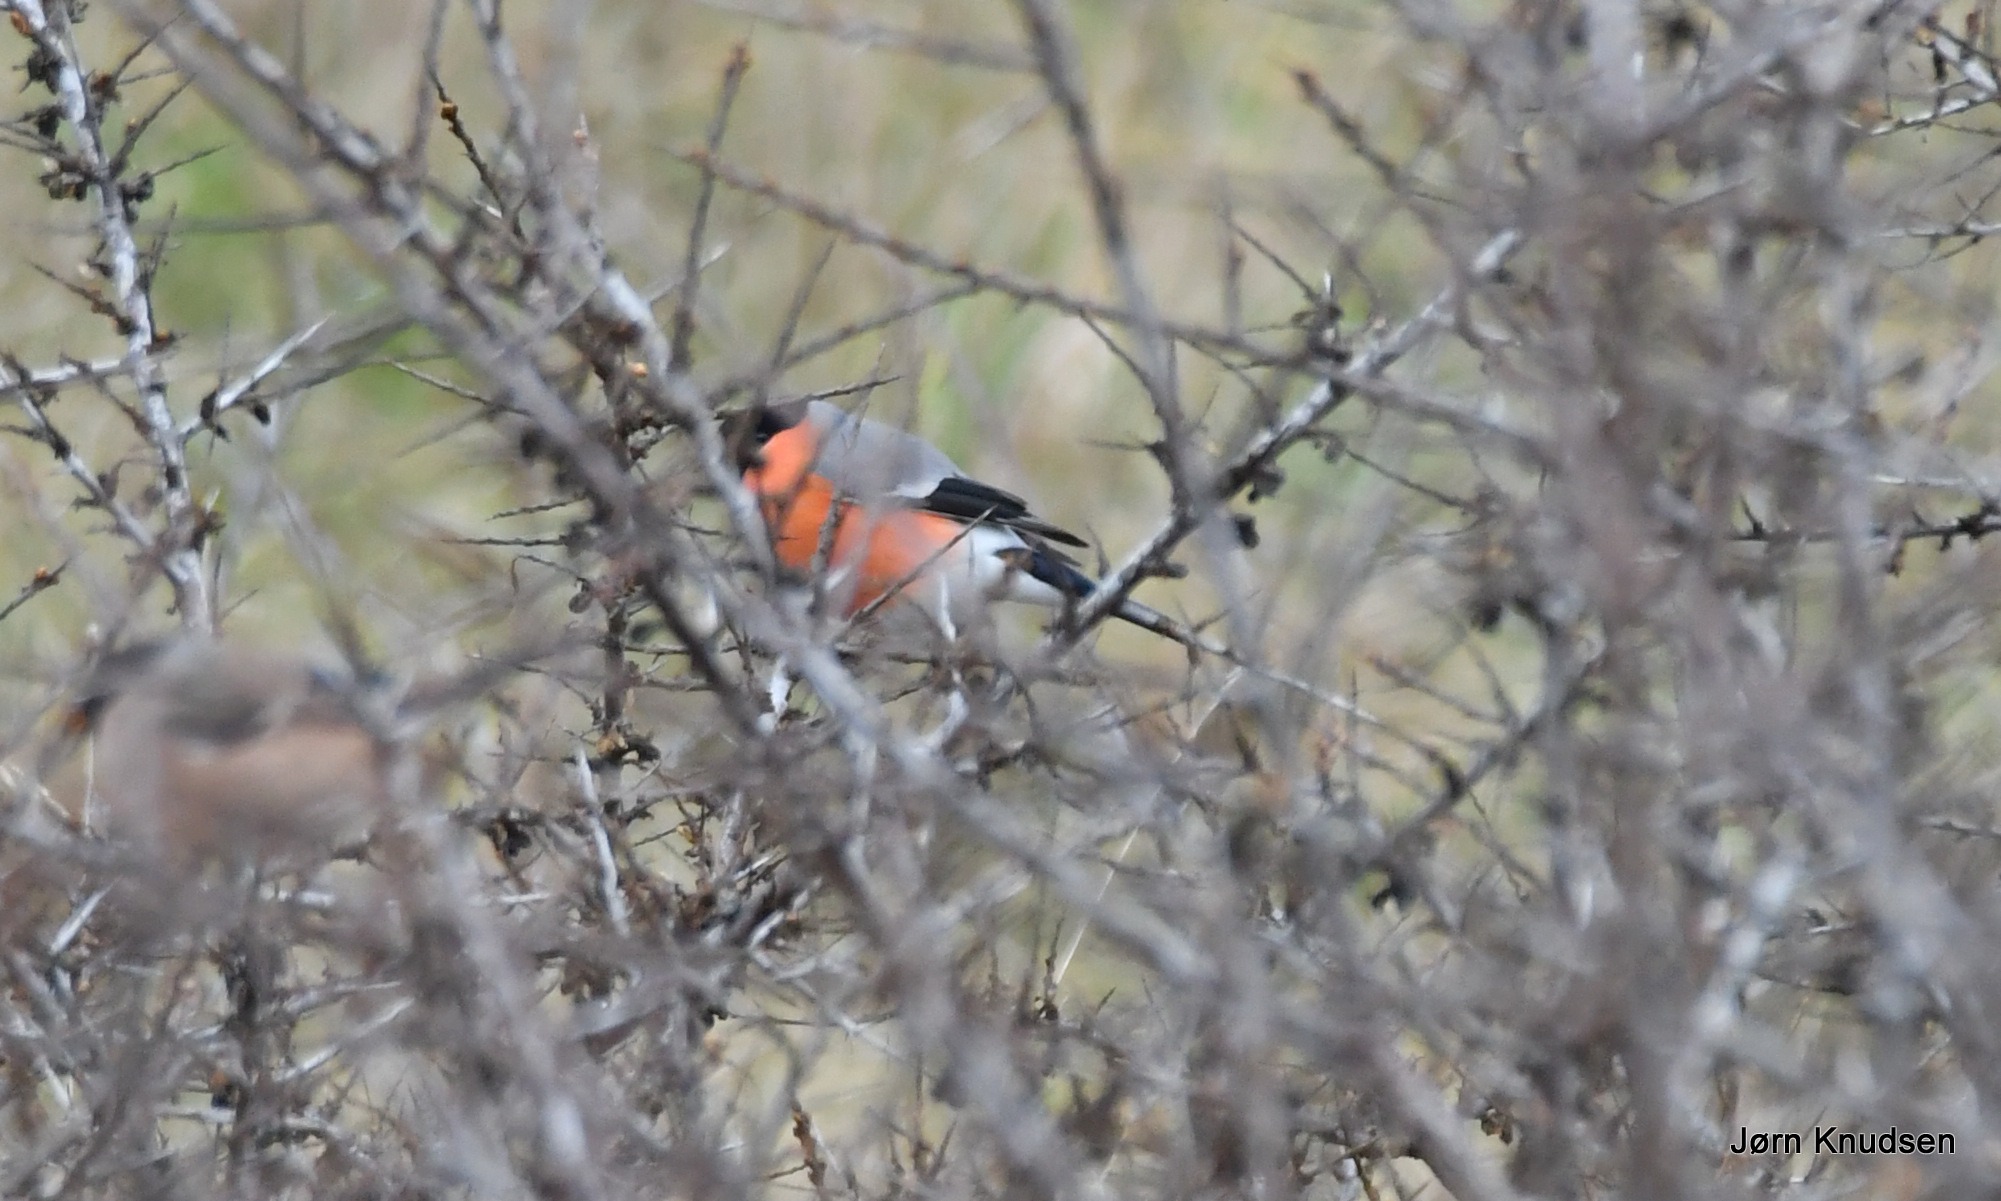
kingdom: Animalia
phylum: Chordata
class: Aves
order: Passeriformes
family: Fringillidae
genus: Pyrrhula
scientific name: Pyrrhula pyrrhula
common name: Dompap
